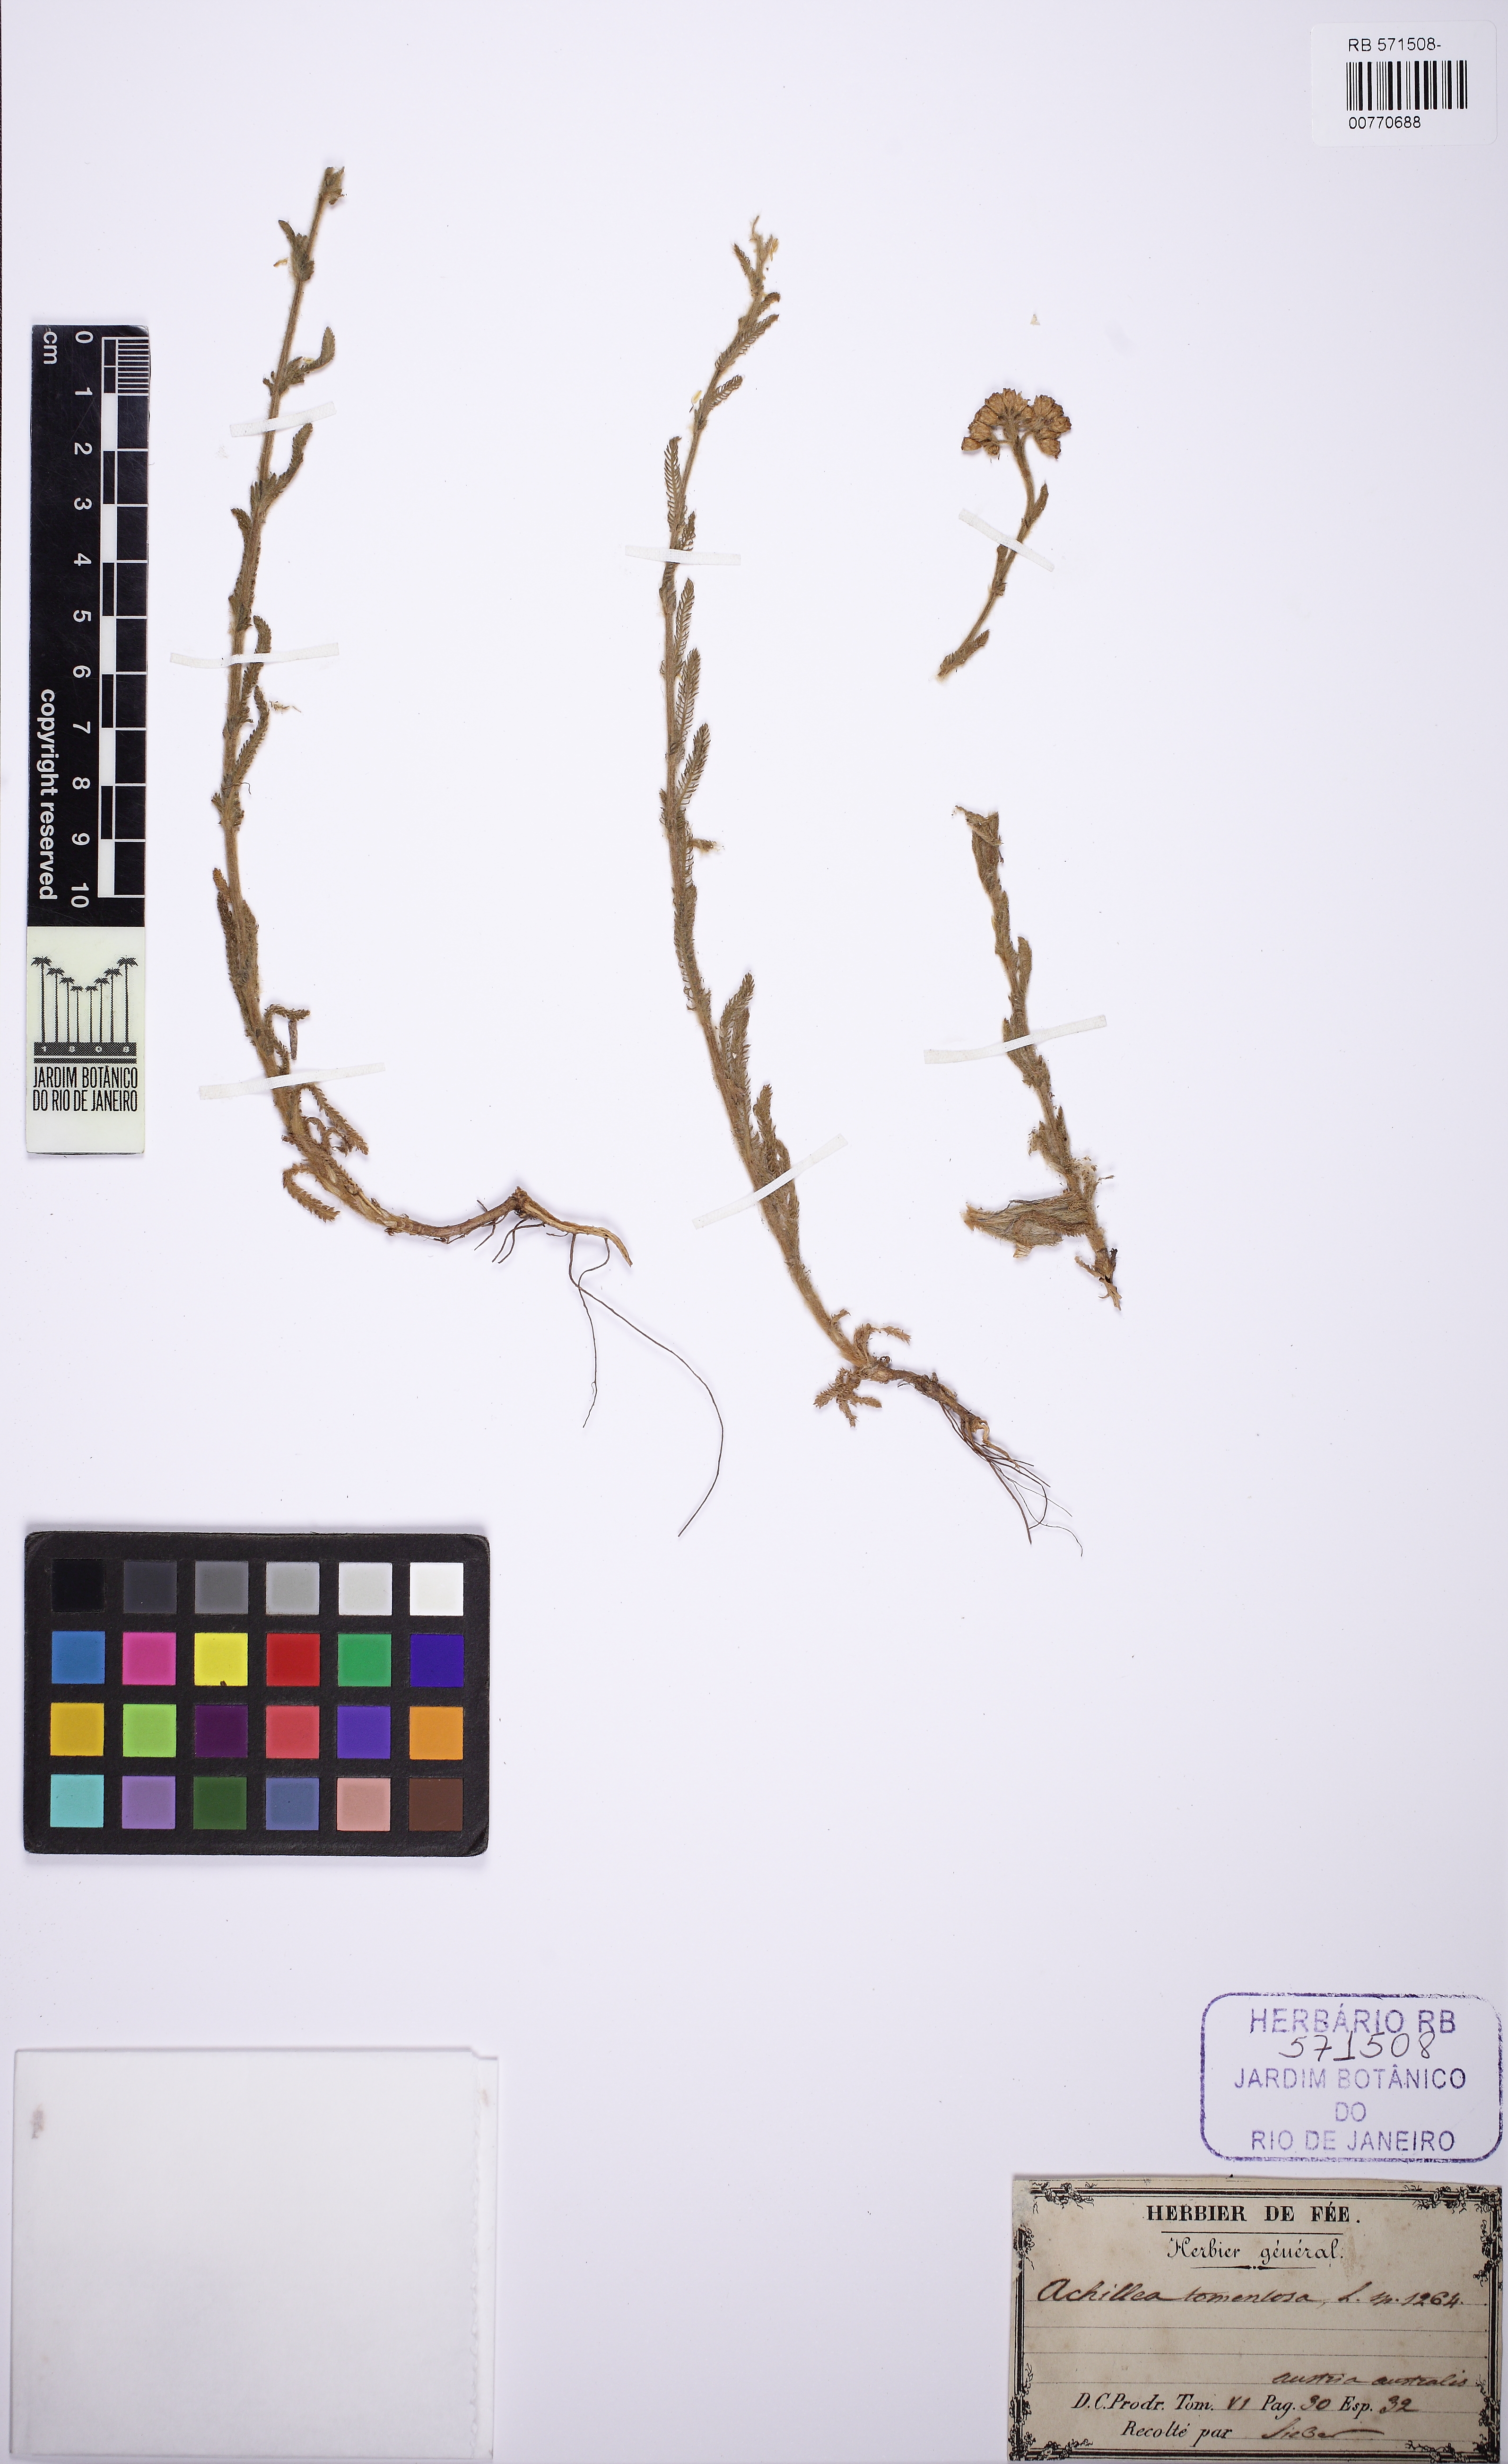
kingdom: Plantae
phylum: Tracheophyta
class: Magnoliopsida
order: Asterales
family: Asteraceae
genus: Achillea
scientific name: Achillea leptophylla
